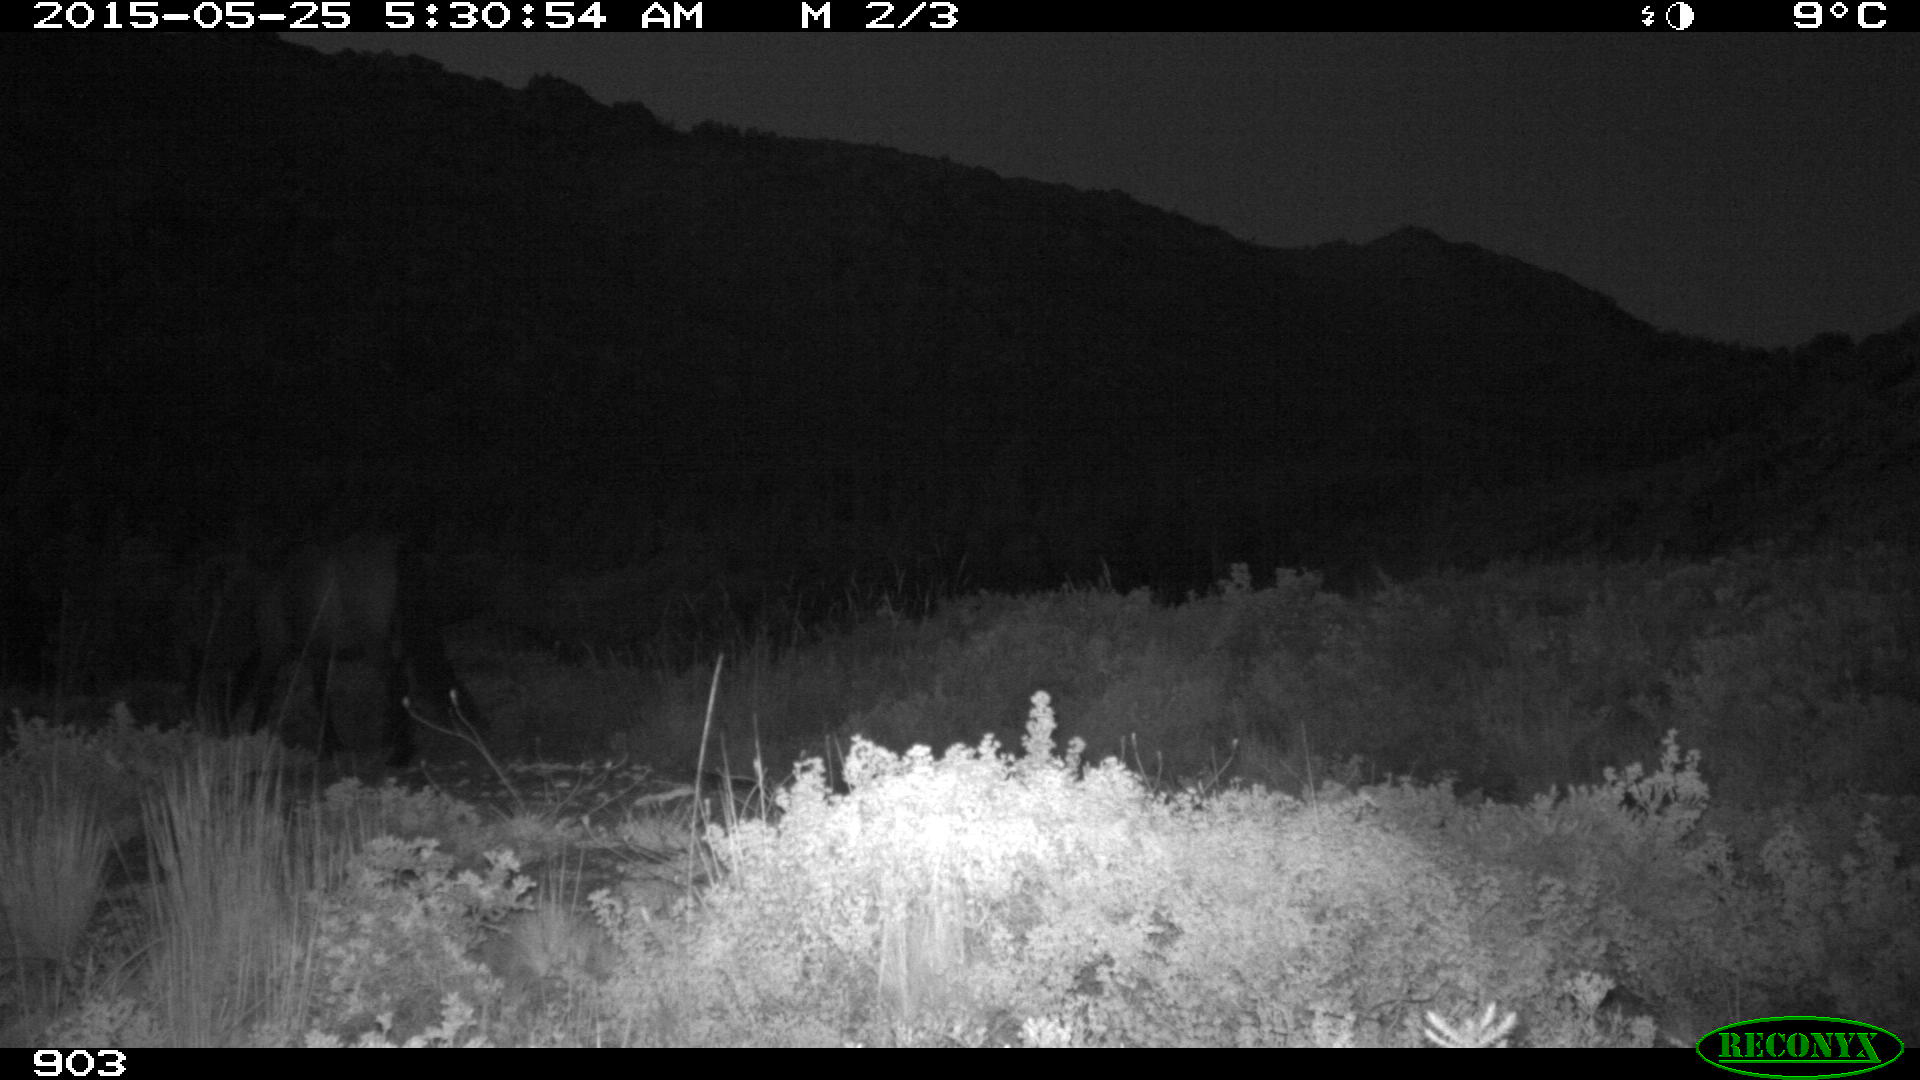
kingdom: Animalia
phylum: Chordata
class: Mammalia
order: Perissodactyla
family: Equidae
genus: Equus
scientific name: Equus caballus
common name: Horse
